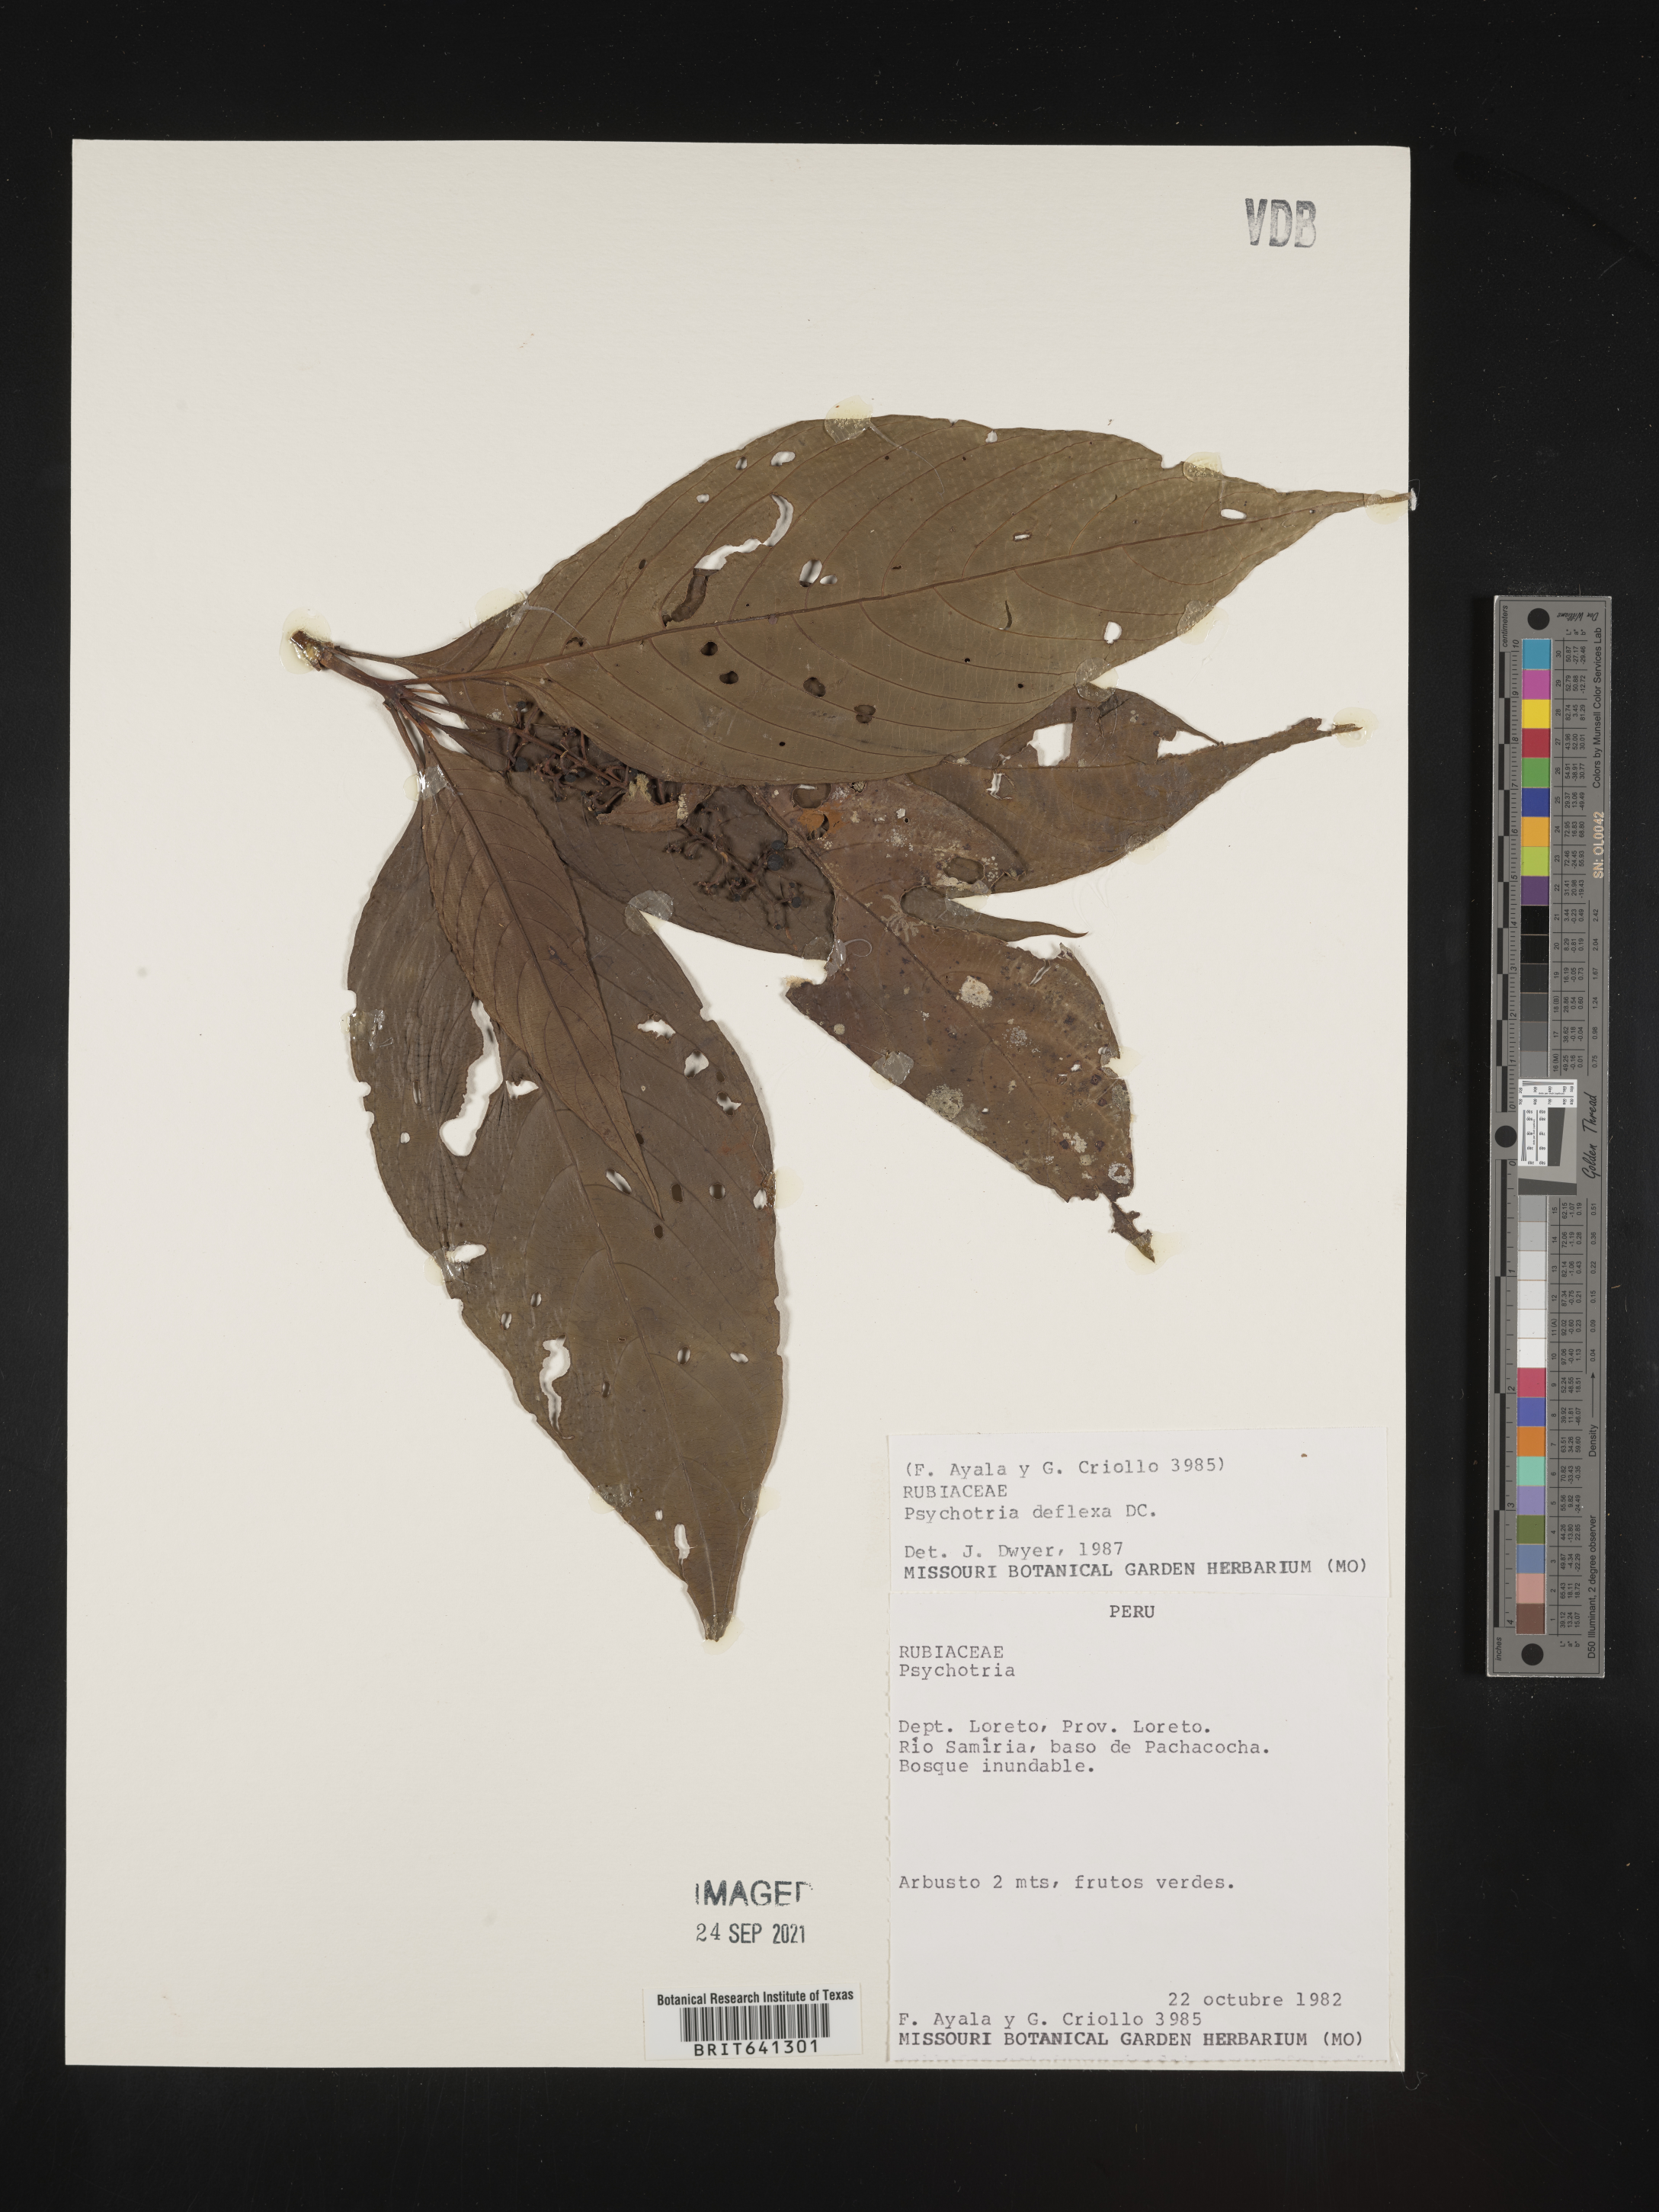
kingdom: Plantae
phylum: Tracheophyta
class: Magnoliopsida
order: Gentianales
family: Rubiaceae
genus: Psychotria
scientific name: Psychotria
